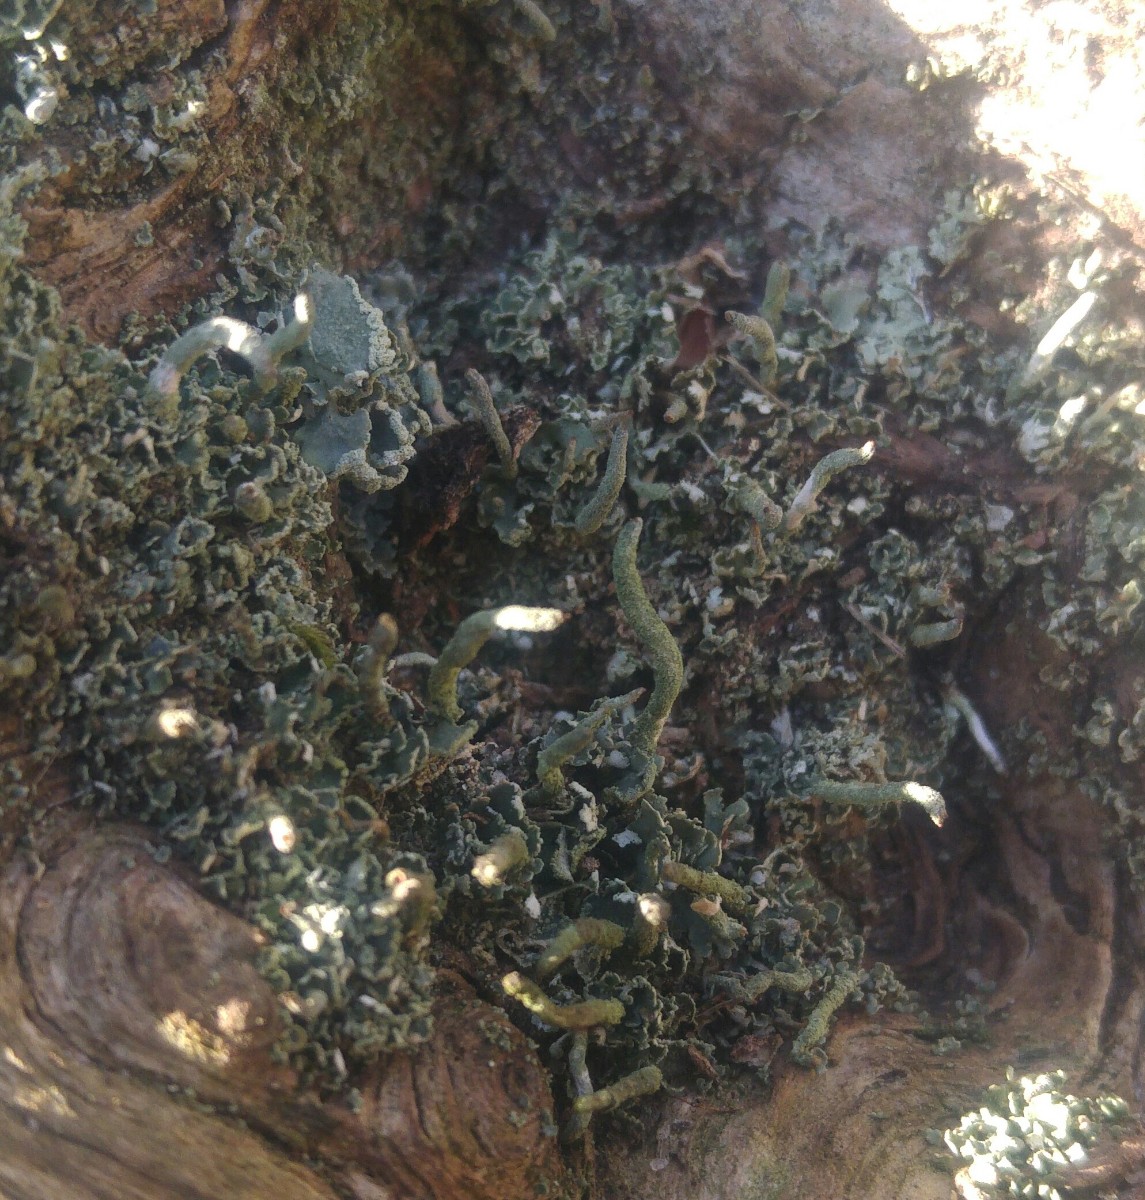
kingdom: Fungi
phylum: Ascomycota
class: Lecanoromycetes
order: Lecanorales
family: Cladoniaceae
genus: Cladonia
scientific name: Cladonia coniocraea
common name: træfods-bægerlav
